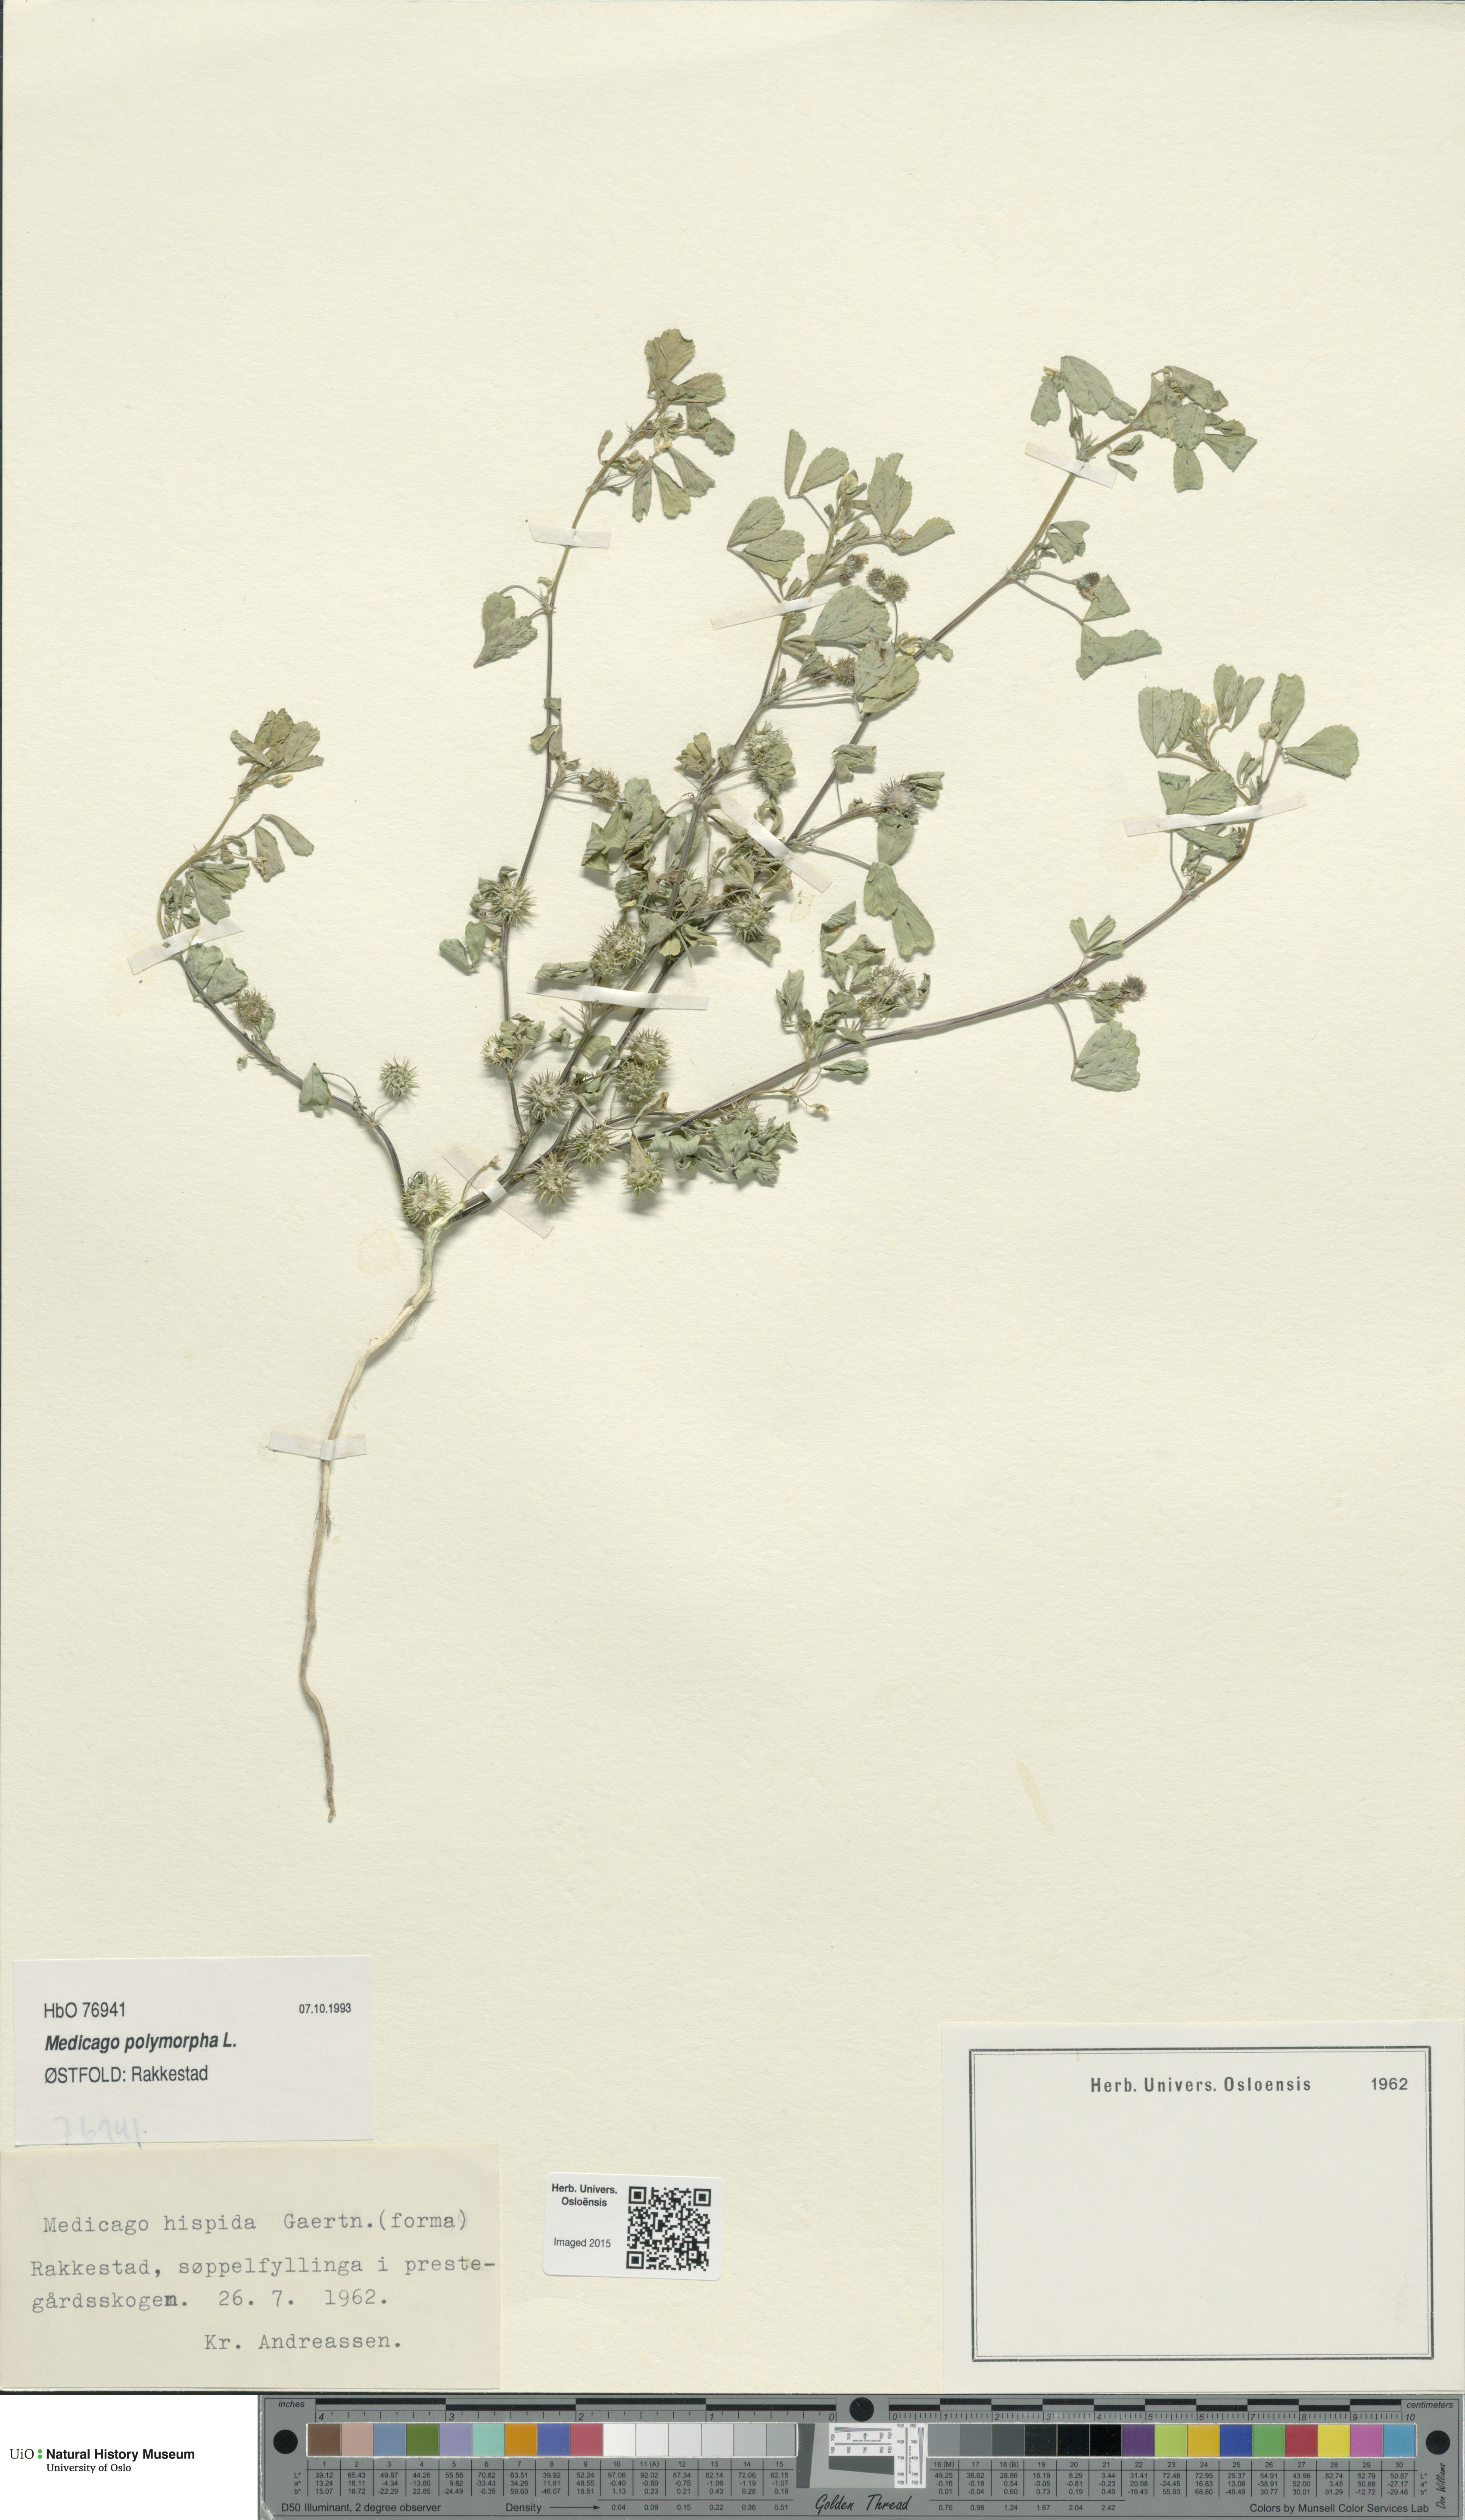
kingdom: Plantae
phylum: Tracheophyta
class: Magnoliopsida
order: Fabales
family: Fabaceae
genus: Medicago
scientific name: Medicago polymorpha
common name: Burclover
